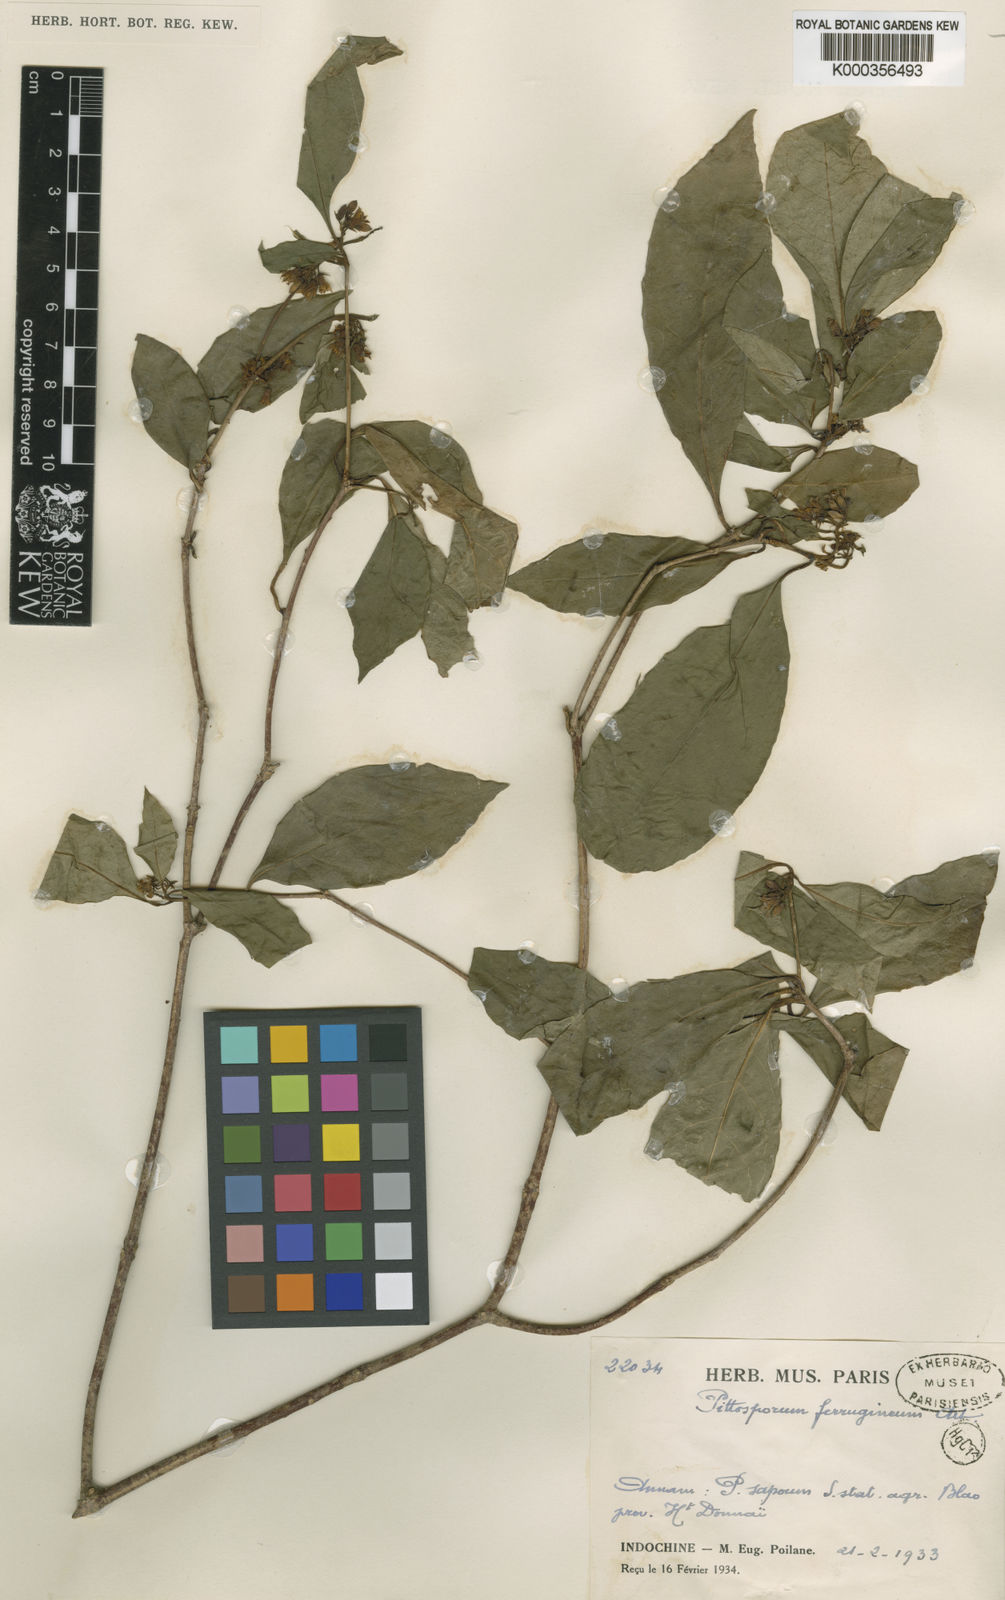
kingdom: Plantae
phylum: Tracheophyta
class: Magnoliopsida
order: Apiales
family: Pittosporaceae
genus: Pittosporum
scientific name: Pittosporum ferrugineum
